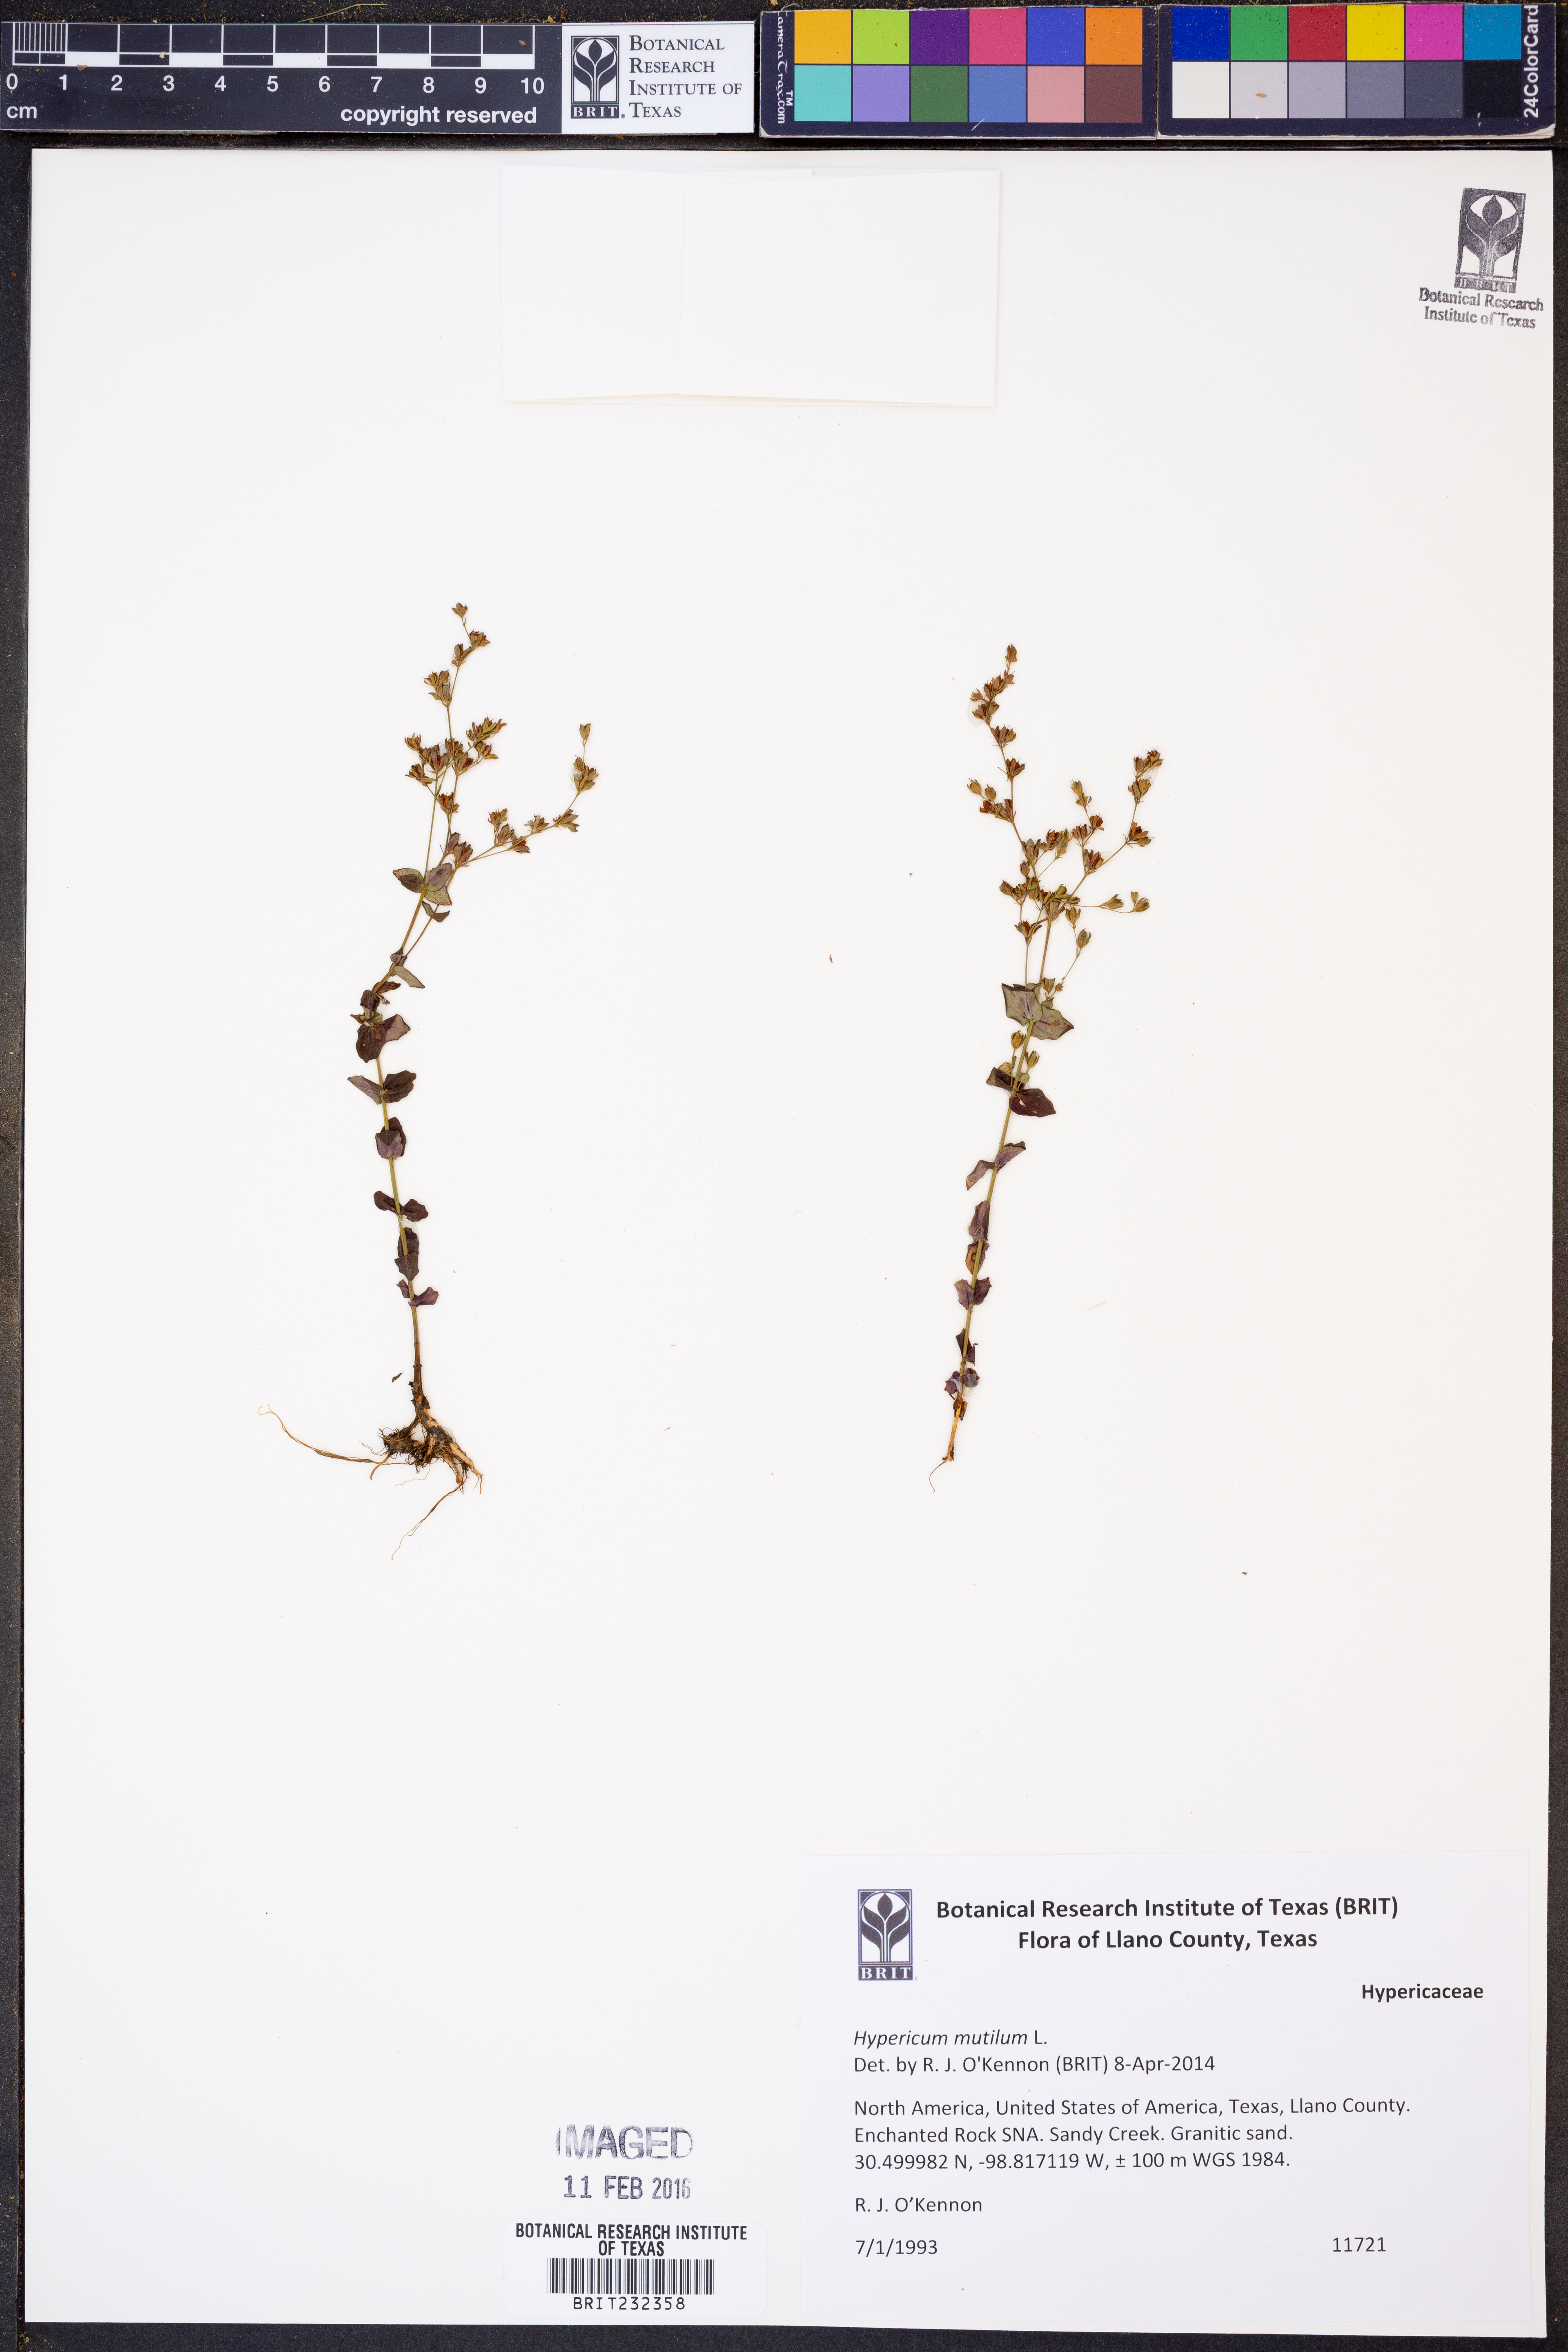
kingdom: Plantae
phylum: Tracheophyta
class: Magnoliopsida
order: Malpighiales
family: Hypericaceae
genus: Hypericum
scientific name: Hypericum mutilum
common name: Dwarf st. john's-wort
